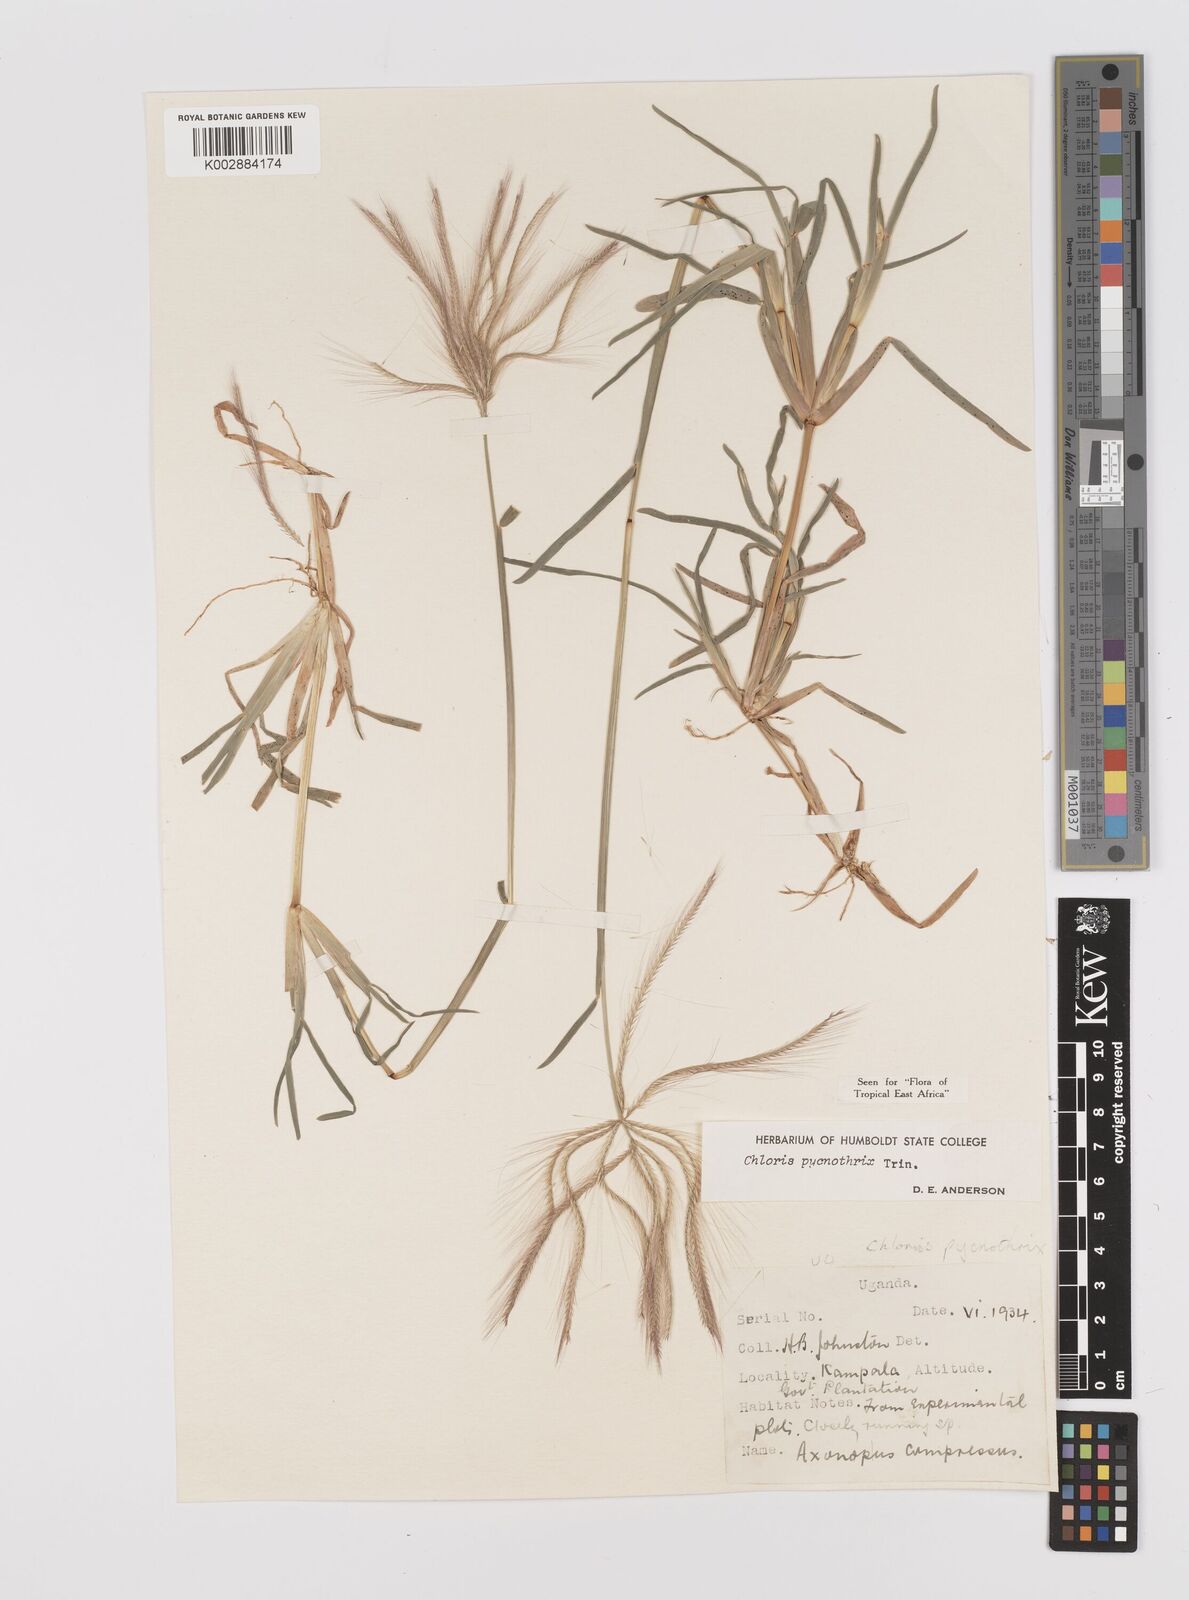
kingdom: Plantae
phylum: Tracheophyta
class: Liliopsida
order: Poales
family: Poaceae
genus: Chloris
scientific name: Chloris pycnothrix
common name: Spiderweb chloris
